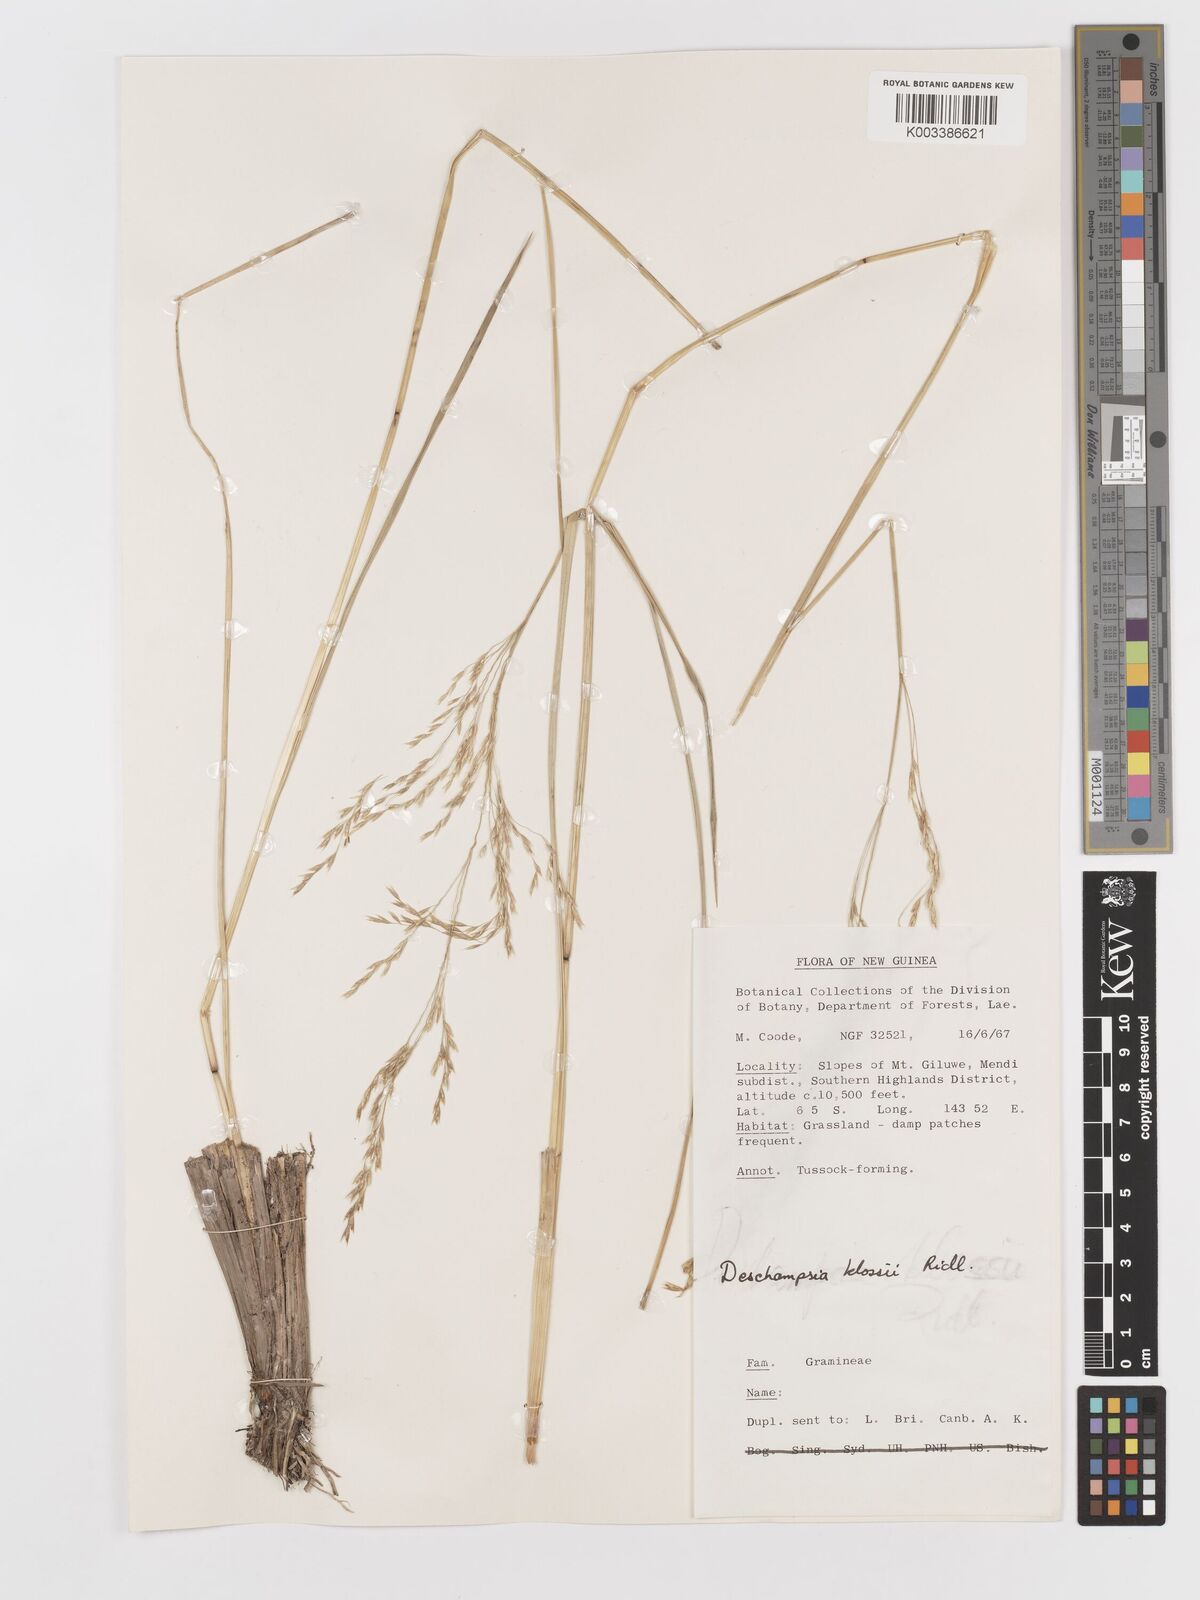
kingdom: Plantae
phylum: Tracheophyta
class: Liliopsida
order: Poales
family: Poaceae
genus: Deschampsia
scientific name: Deschampsia klossii
